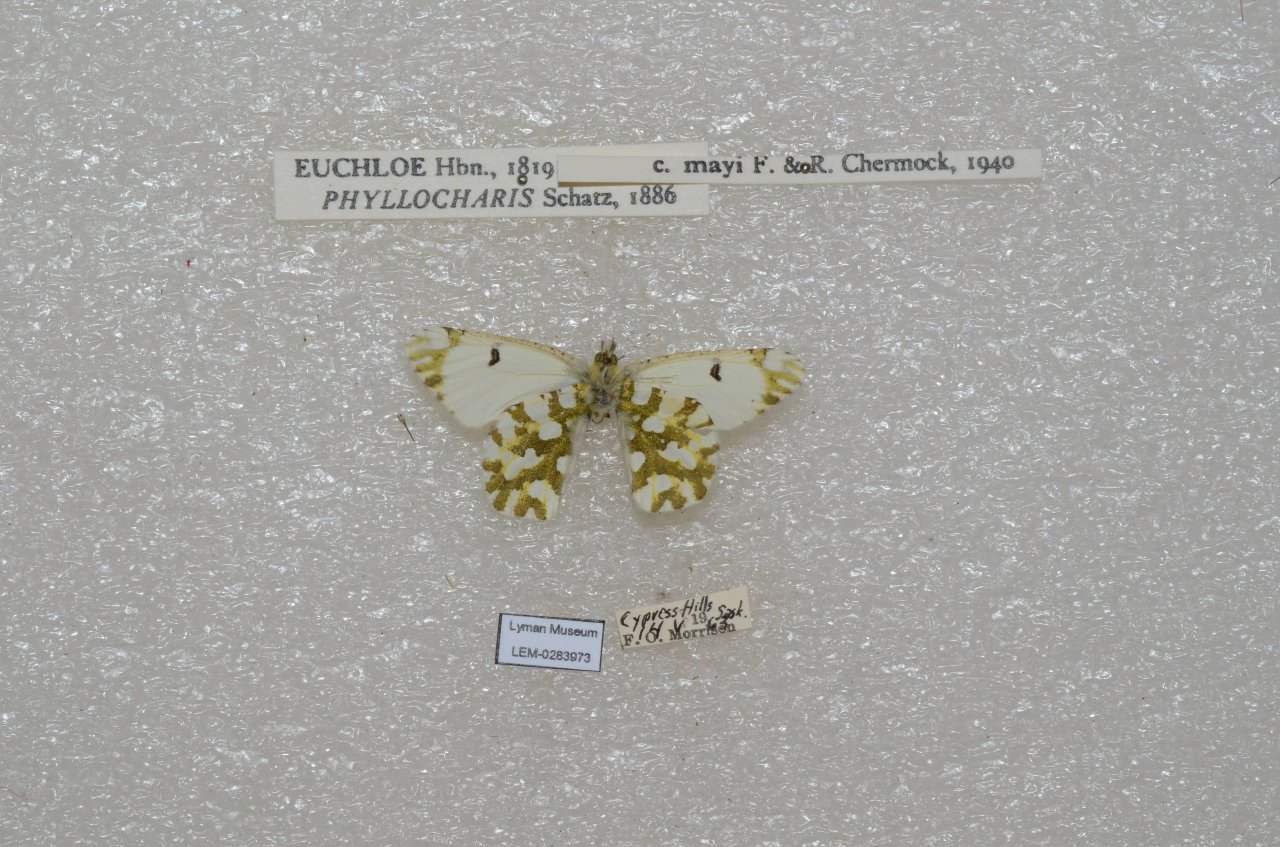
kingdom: Animalia
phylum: Arthropoda
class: Insecta
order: Lepidoptera
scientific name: Lepidoptera
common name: Butterflies
